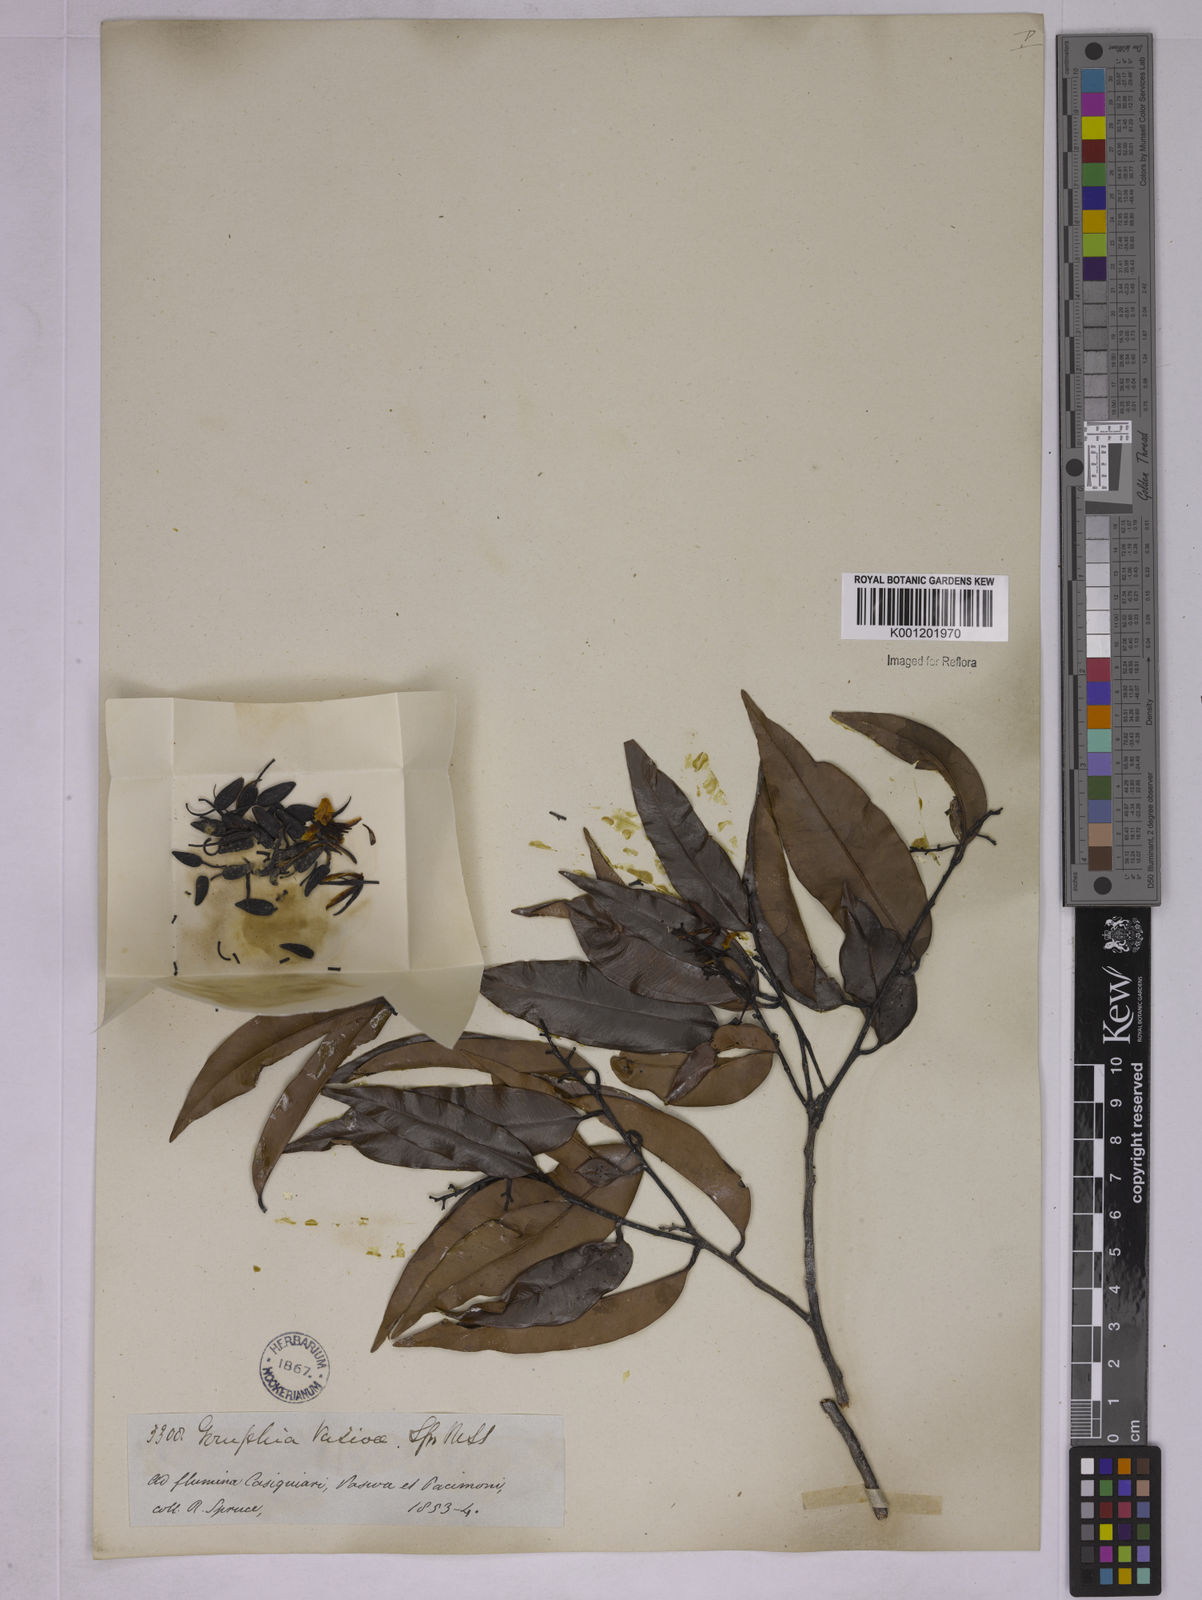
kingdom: Plantae
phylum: Tracheophyta
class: Magnoliopsida
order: Malpighiales
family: Ochnaceae
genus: Ouratea
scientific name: Ouratea grandiflora
